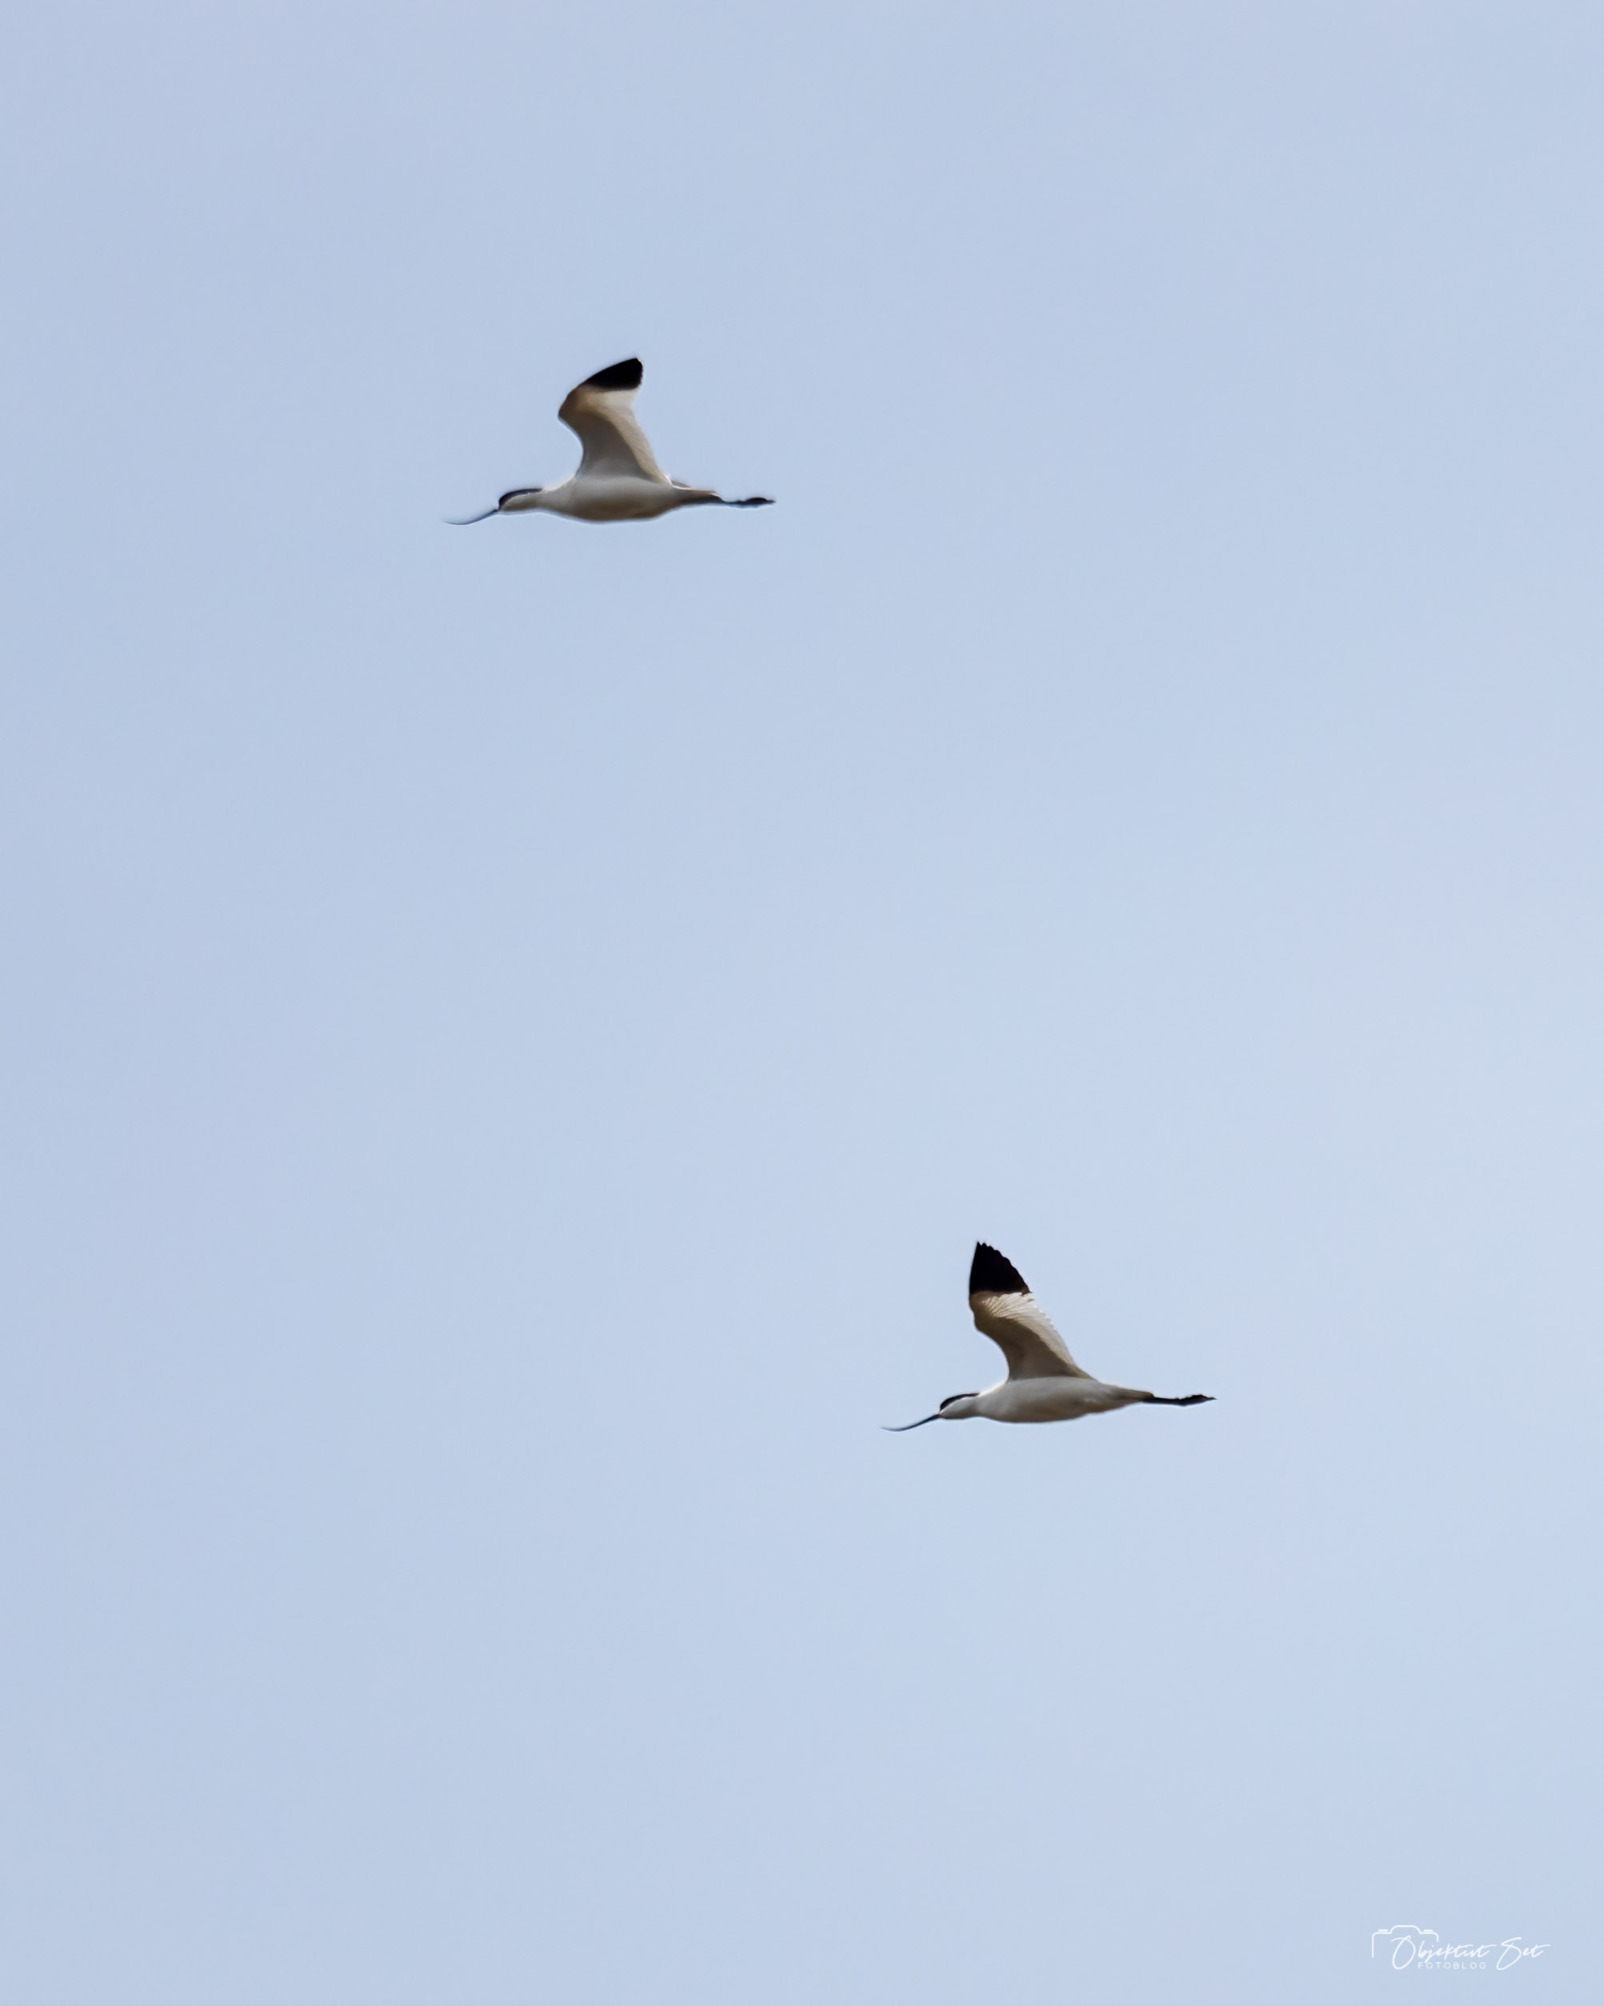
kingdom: Animalia
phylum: Chordata
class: Aves
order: Charadriiformes
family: Recurvirostridae
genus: Recurvirostra
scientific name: Recurvirostra avosetta
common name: Klyde
